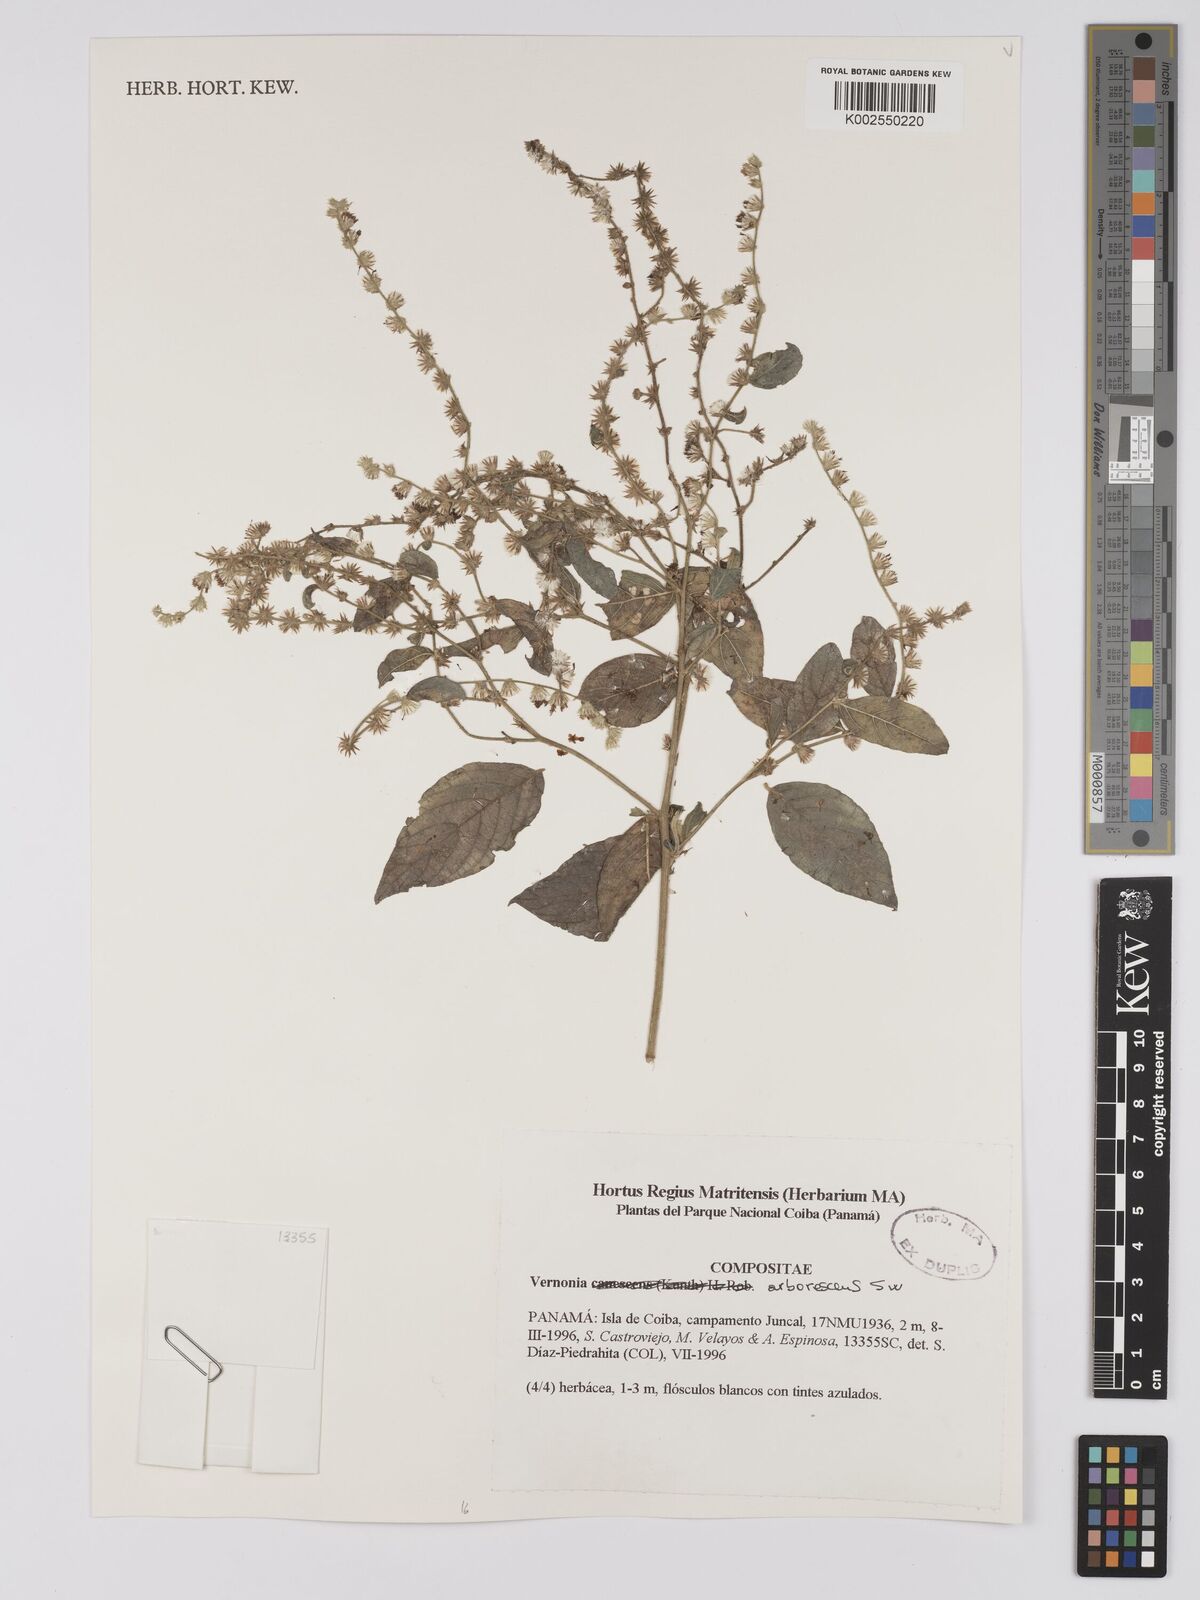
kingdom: Plantae
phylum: Tracheophyta
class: Magnoliopsida
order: Asterales
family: Asteraceae
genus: Lepidaploa
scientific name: Lepidaploa arborescens
